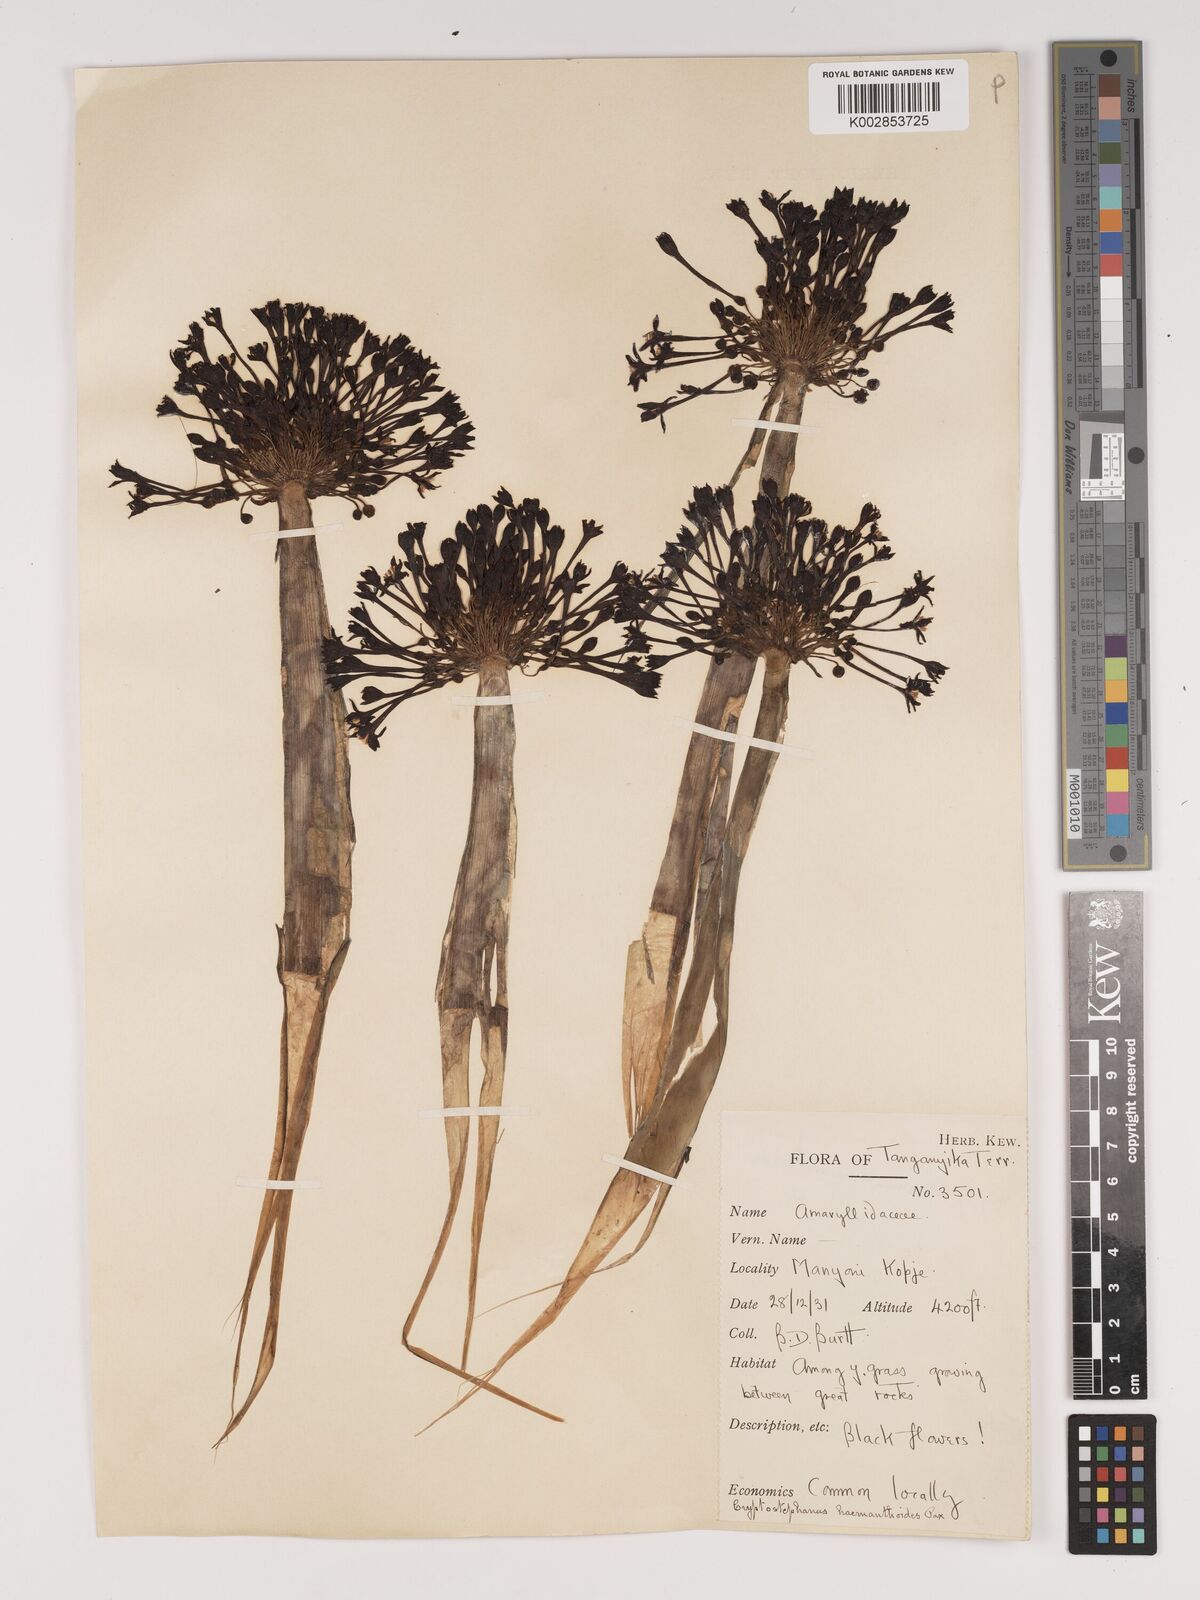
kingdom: Plantae
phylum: Tracheophyta
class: Liliopsida
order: Asparagales
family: Amaryllidaceae
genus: Cryptostephanus
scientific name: Cryptostephanus haemanthoides
